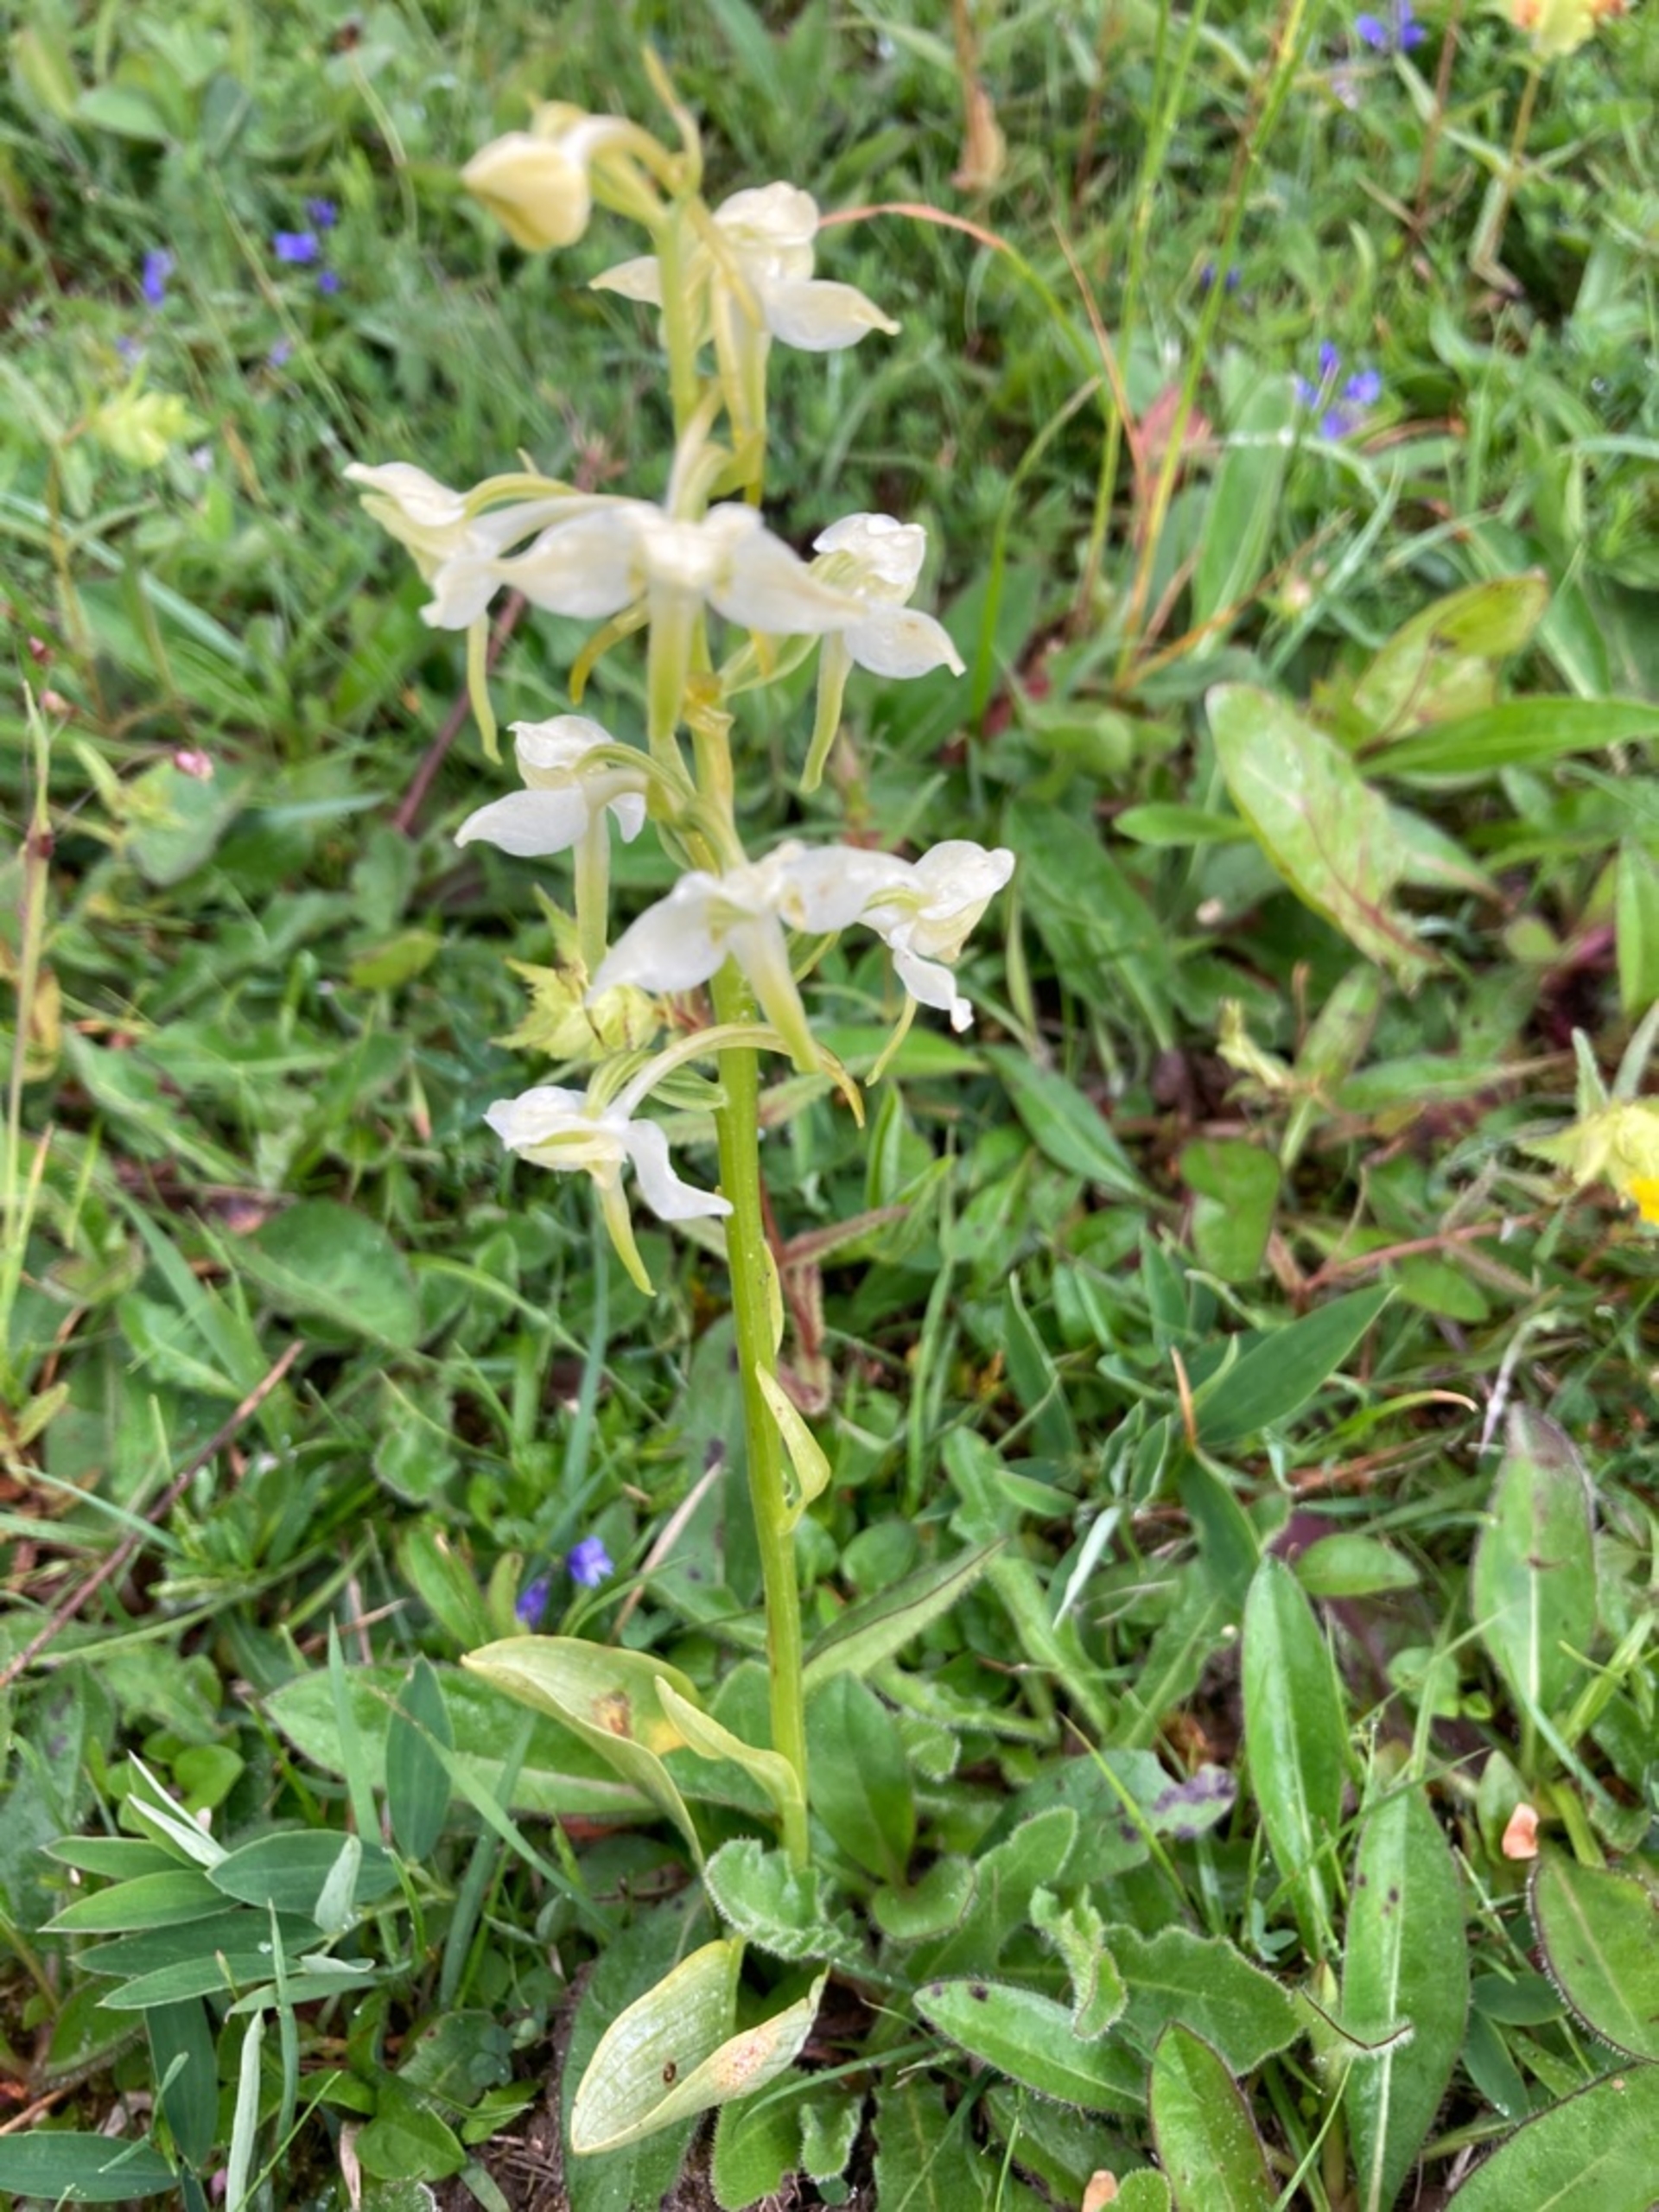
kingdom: Plantae
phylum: Tracheophyta
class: Liliopsida
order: Asparagales
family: Orchidaceae
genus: Platanthera
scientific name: Platanthera chlorantha
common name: Skov-gøgelilje
